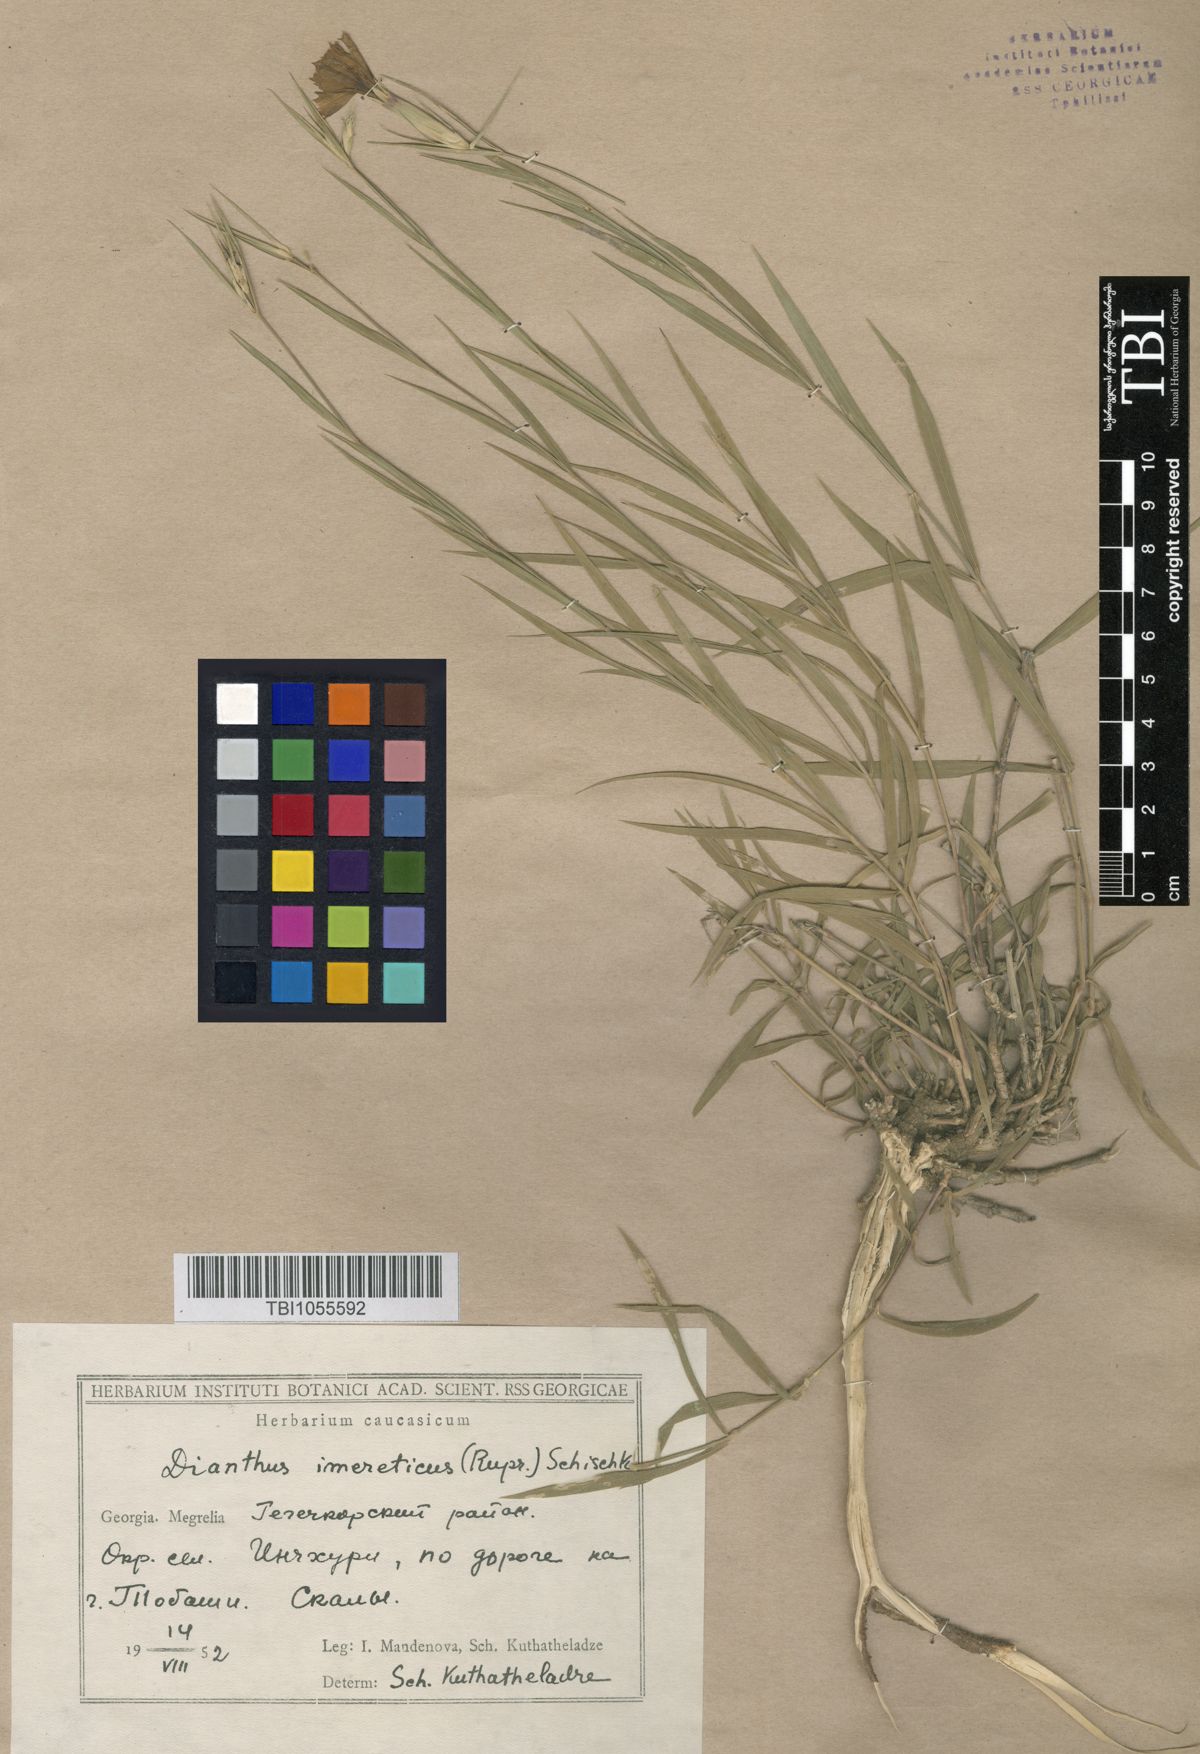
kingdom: Plantae
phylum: Tracheophyta
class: Magnoliopsida
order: Caryophyllales
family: Caryophyllaceae
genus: Dianthus
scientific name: Dianthus imereticus
